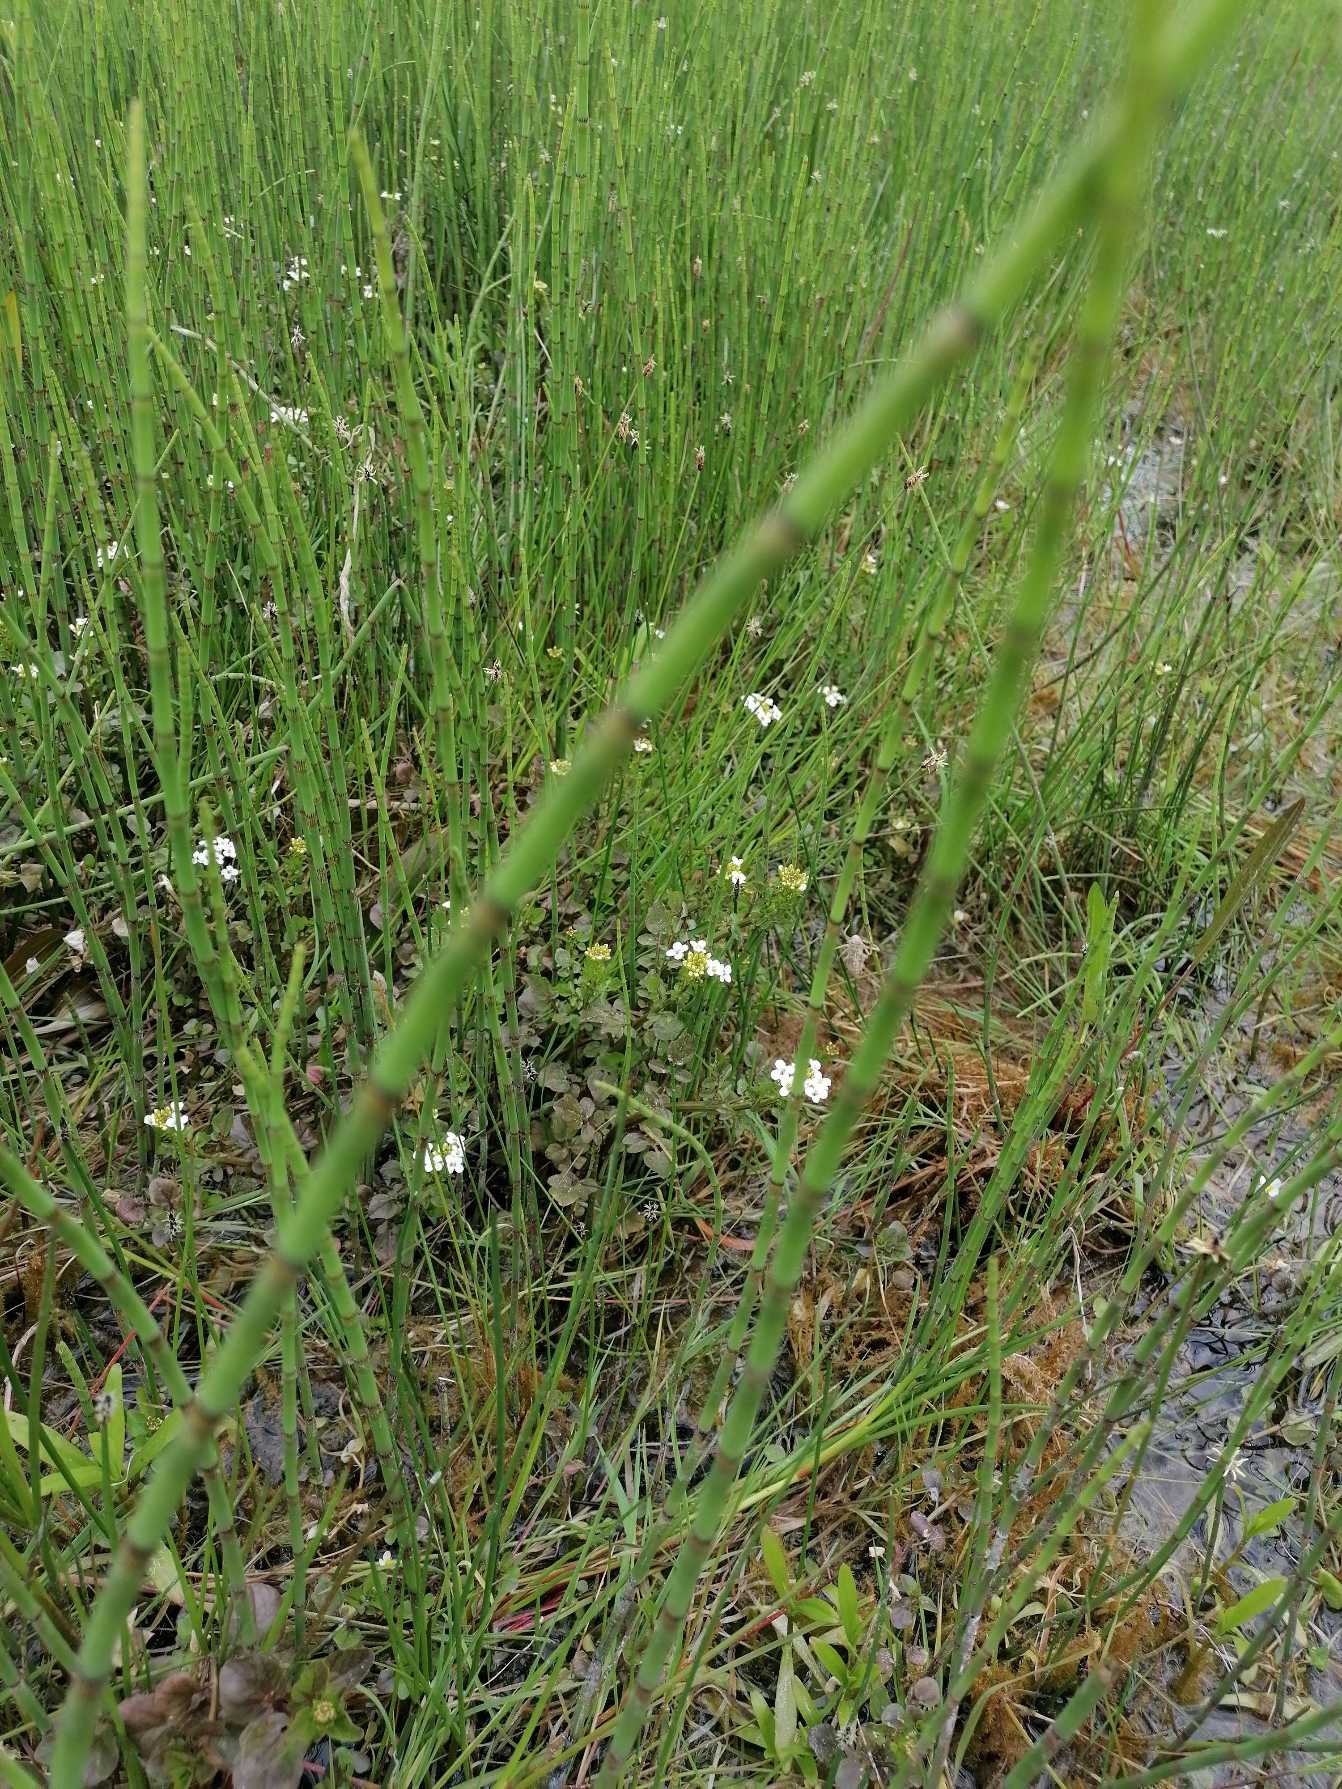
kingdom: Plantae
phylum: Tracheophyta
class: Polypodiopsida
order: Equisetales
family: Equisetaceae
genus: Equisetum
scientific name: Equisetum fluviatile
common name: Dynd-padderok
